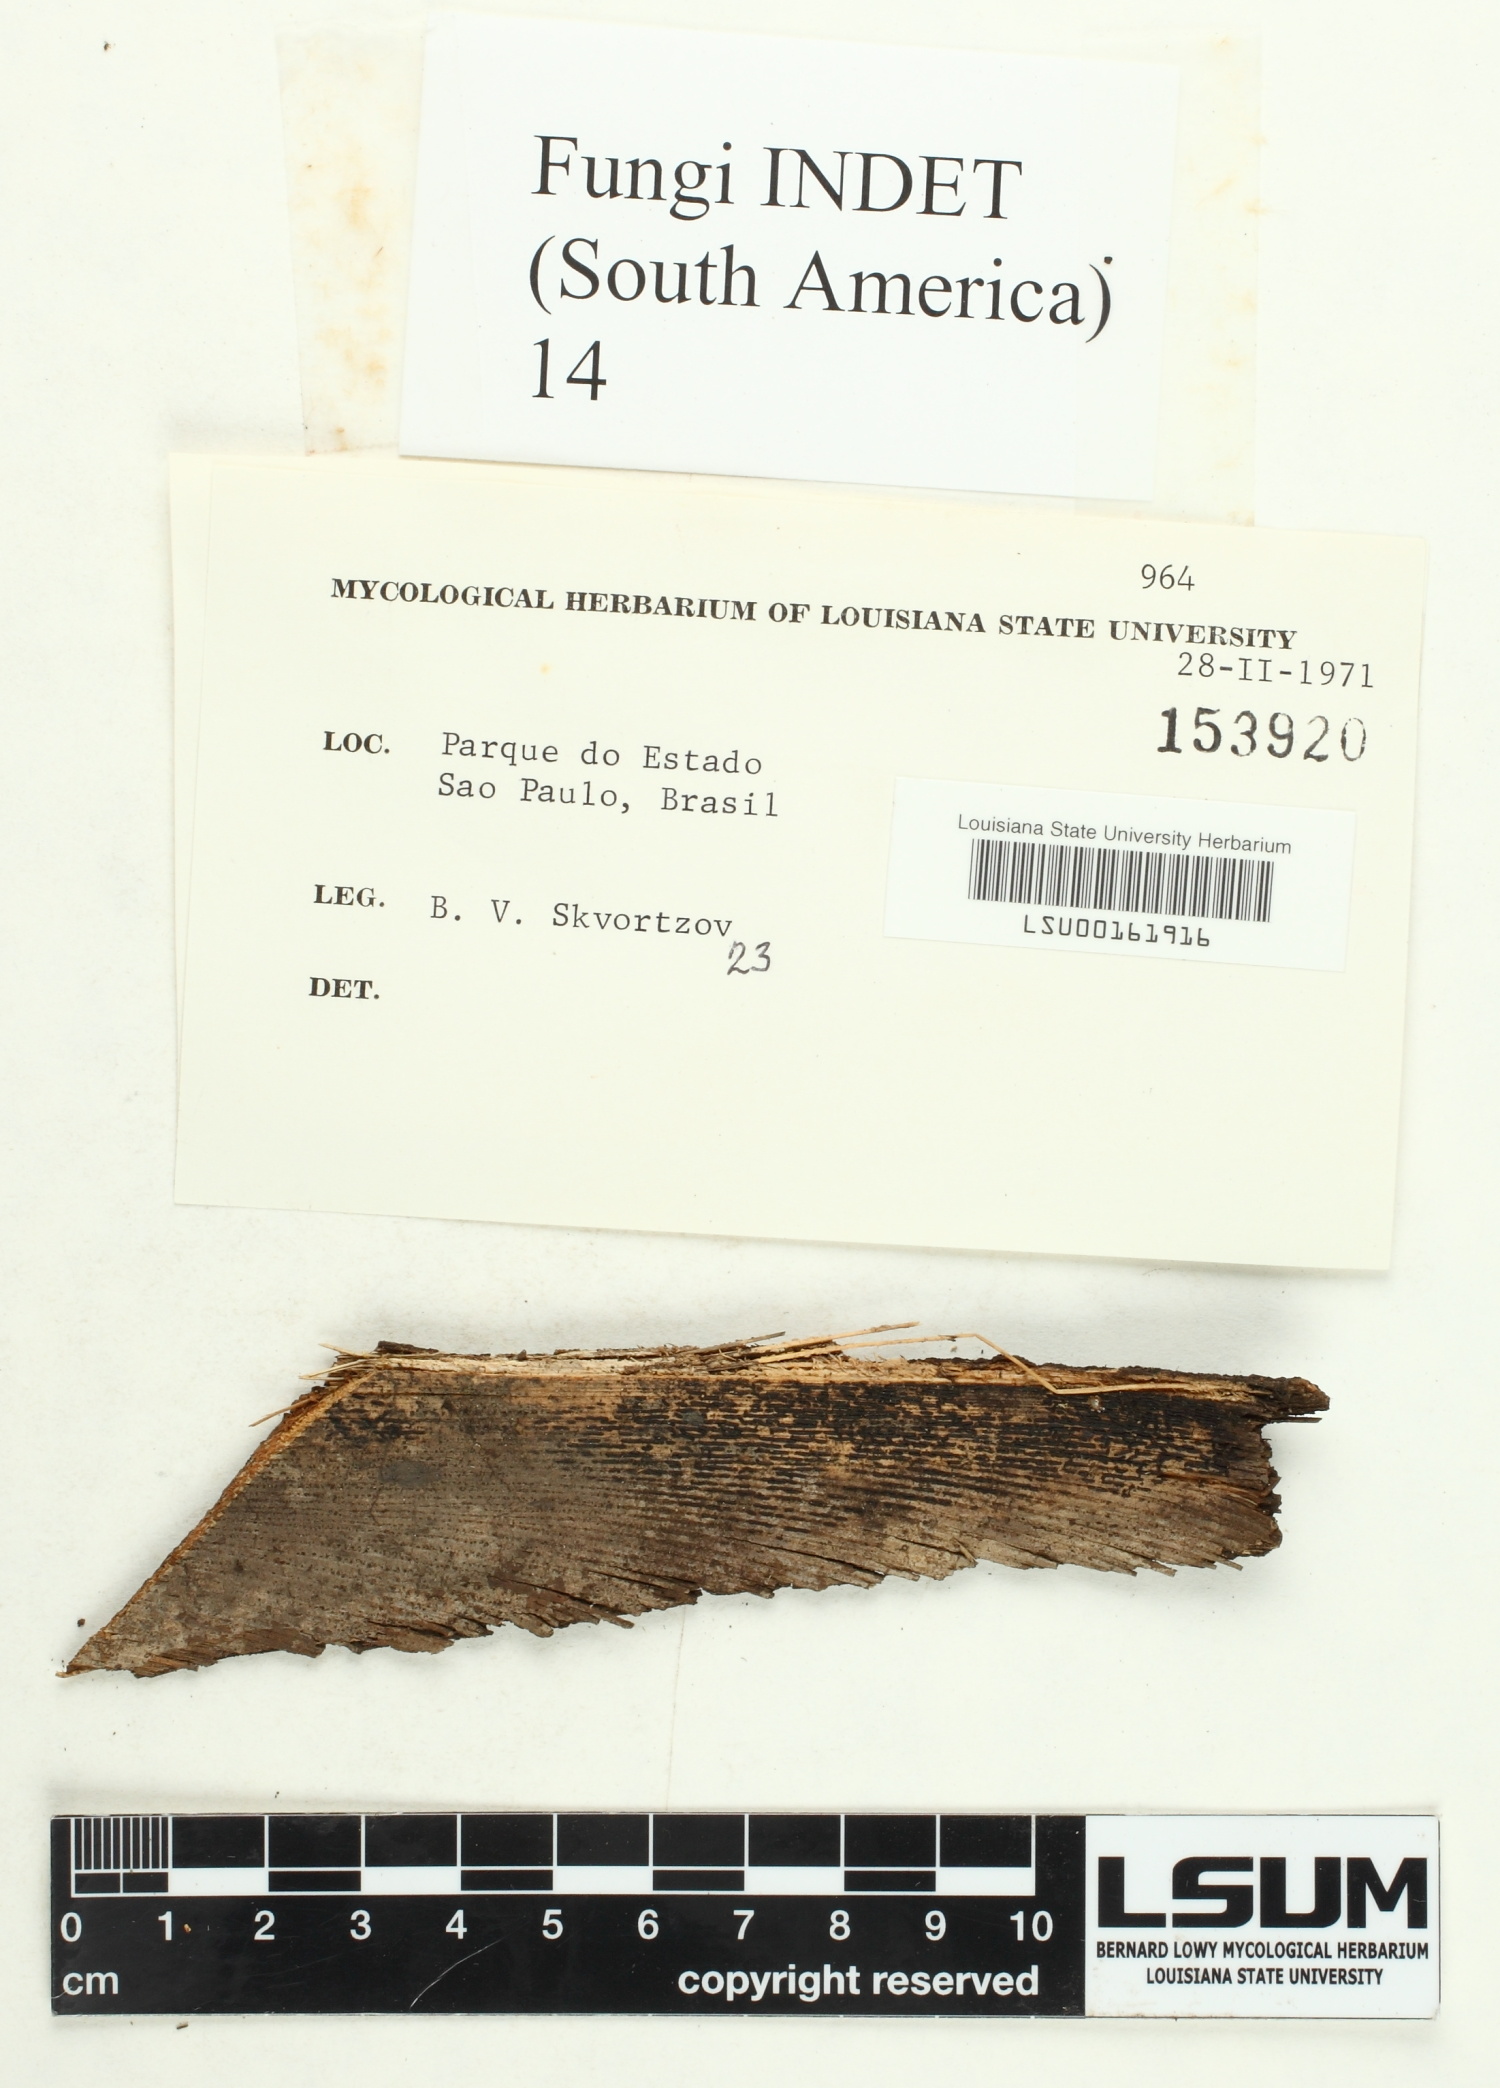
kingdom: Fungi
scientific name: Fungi
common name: Fungi
